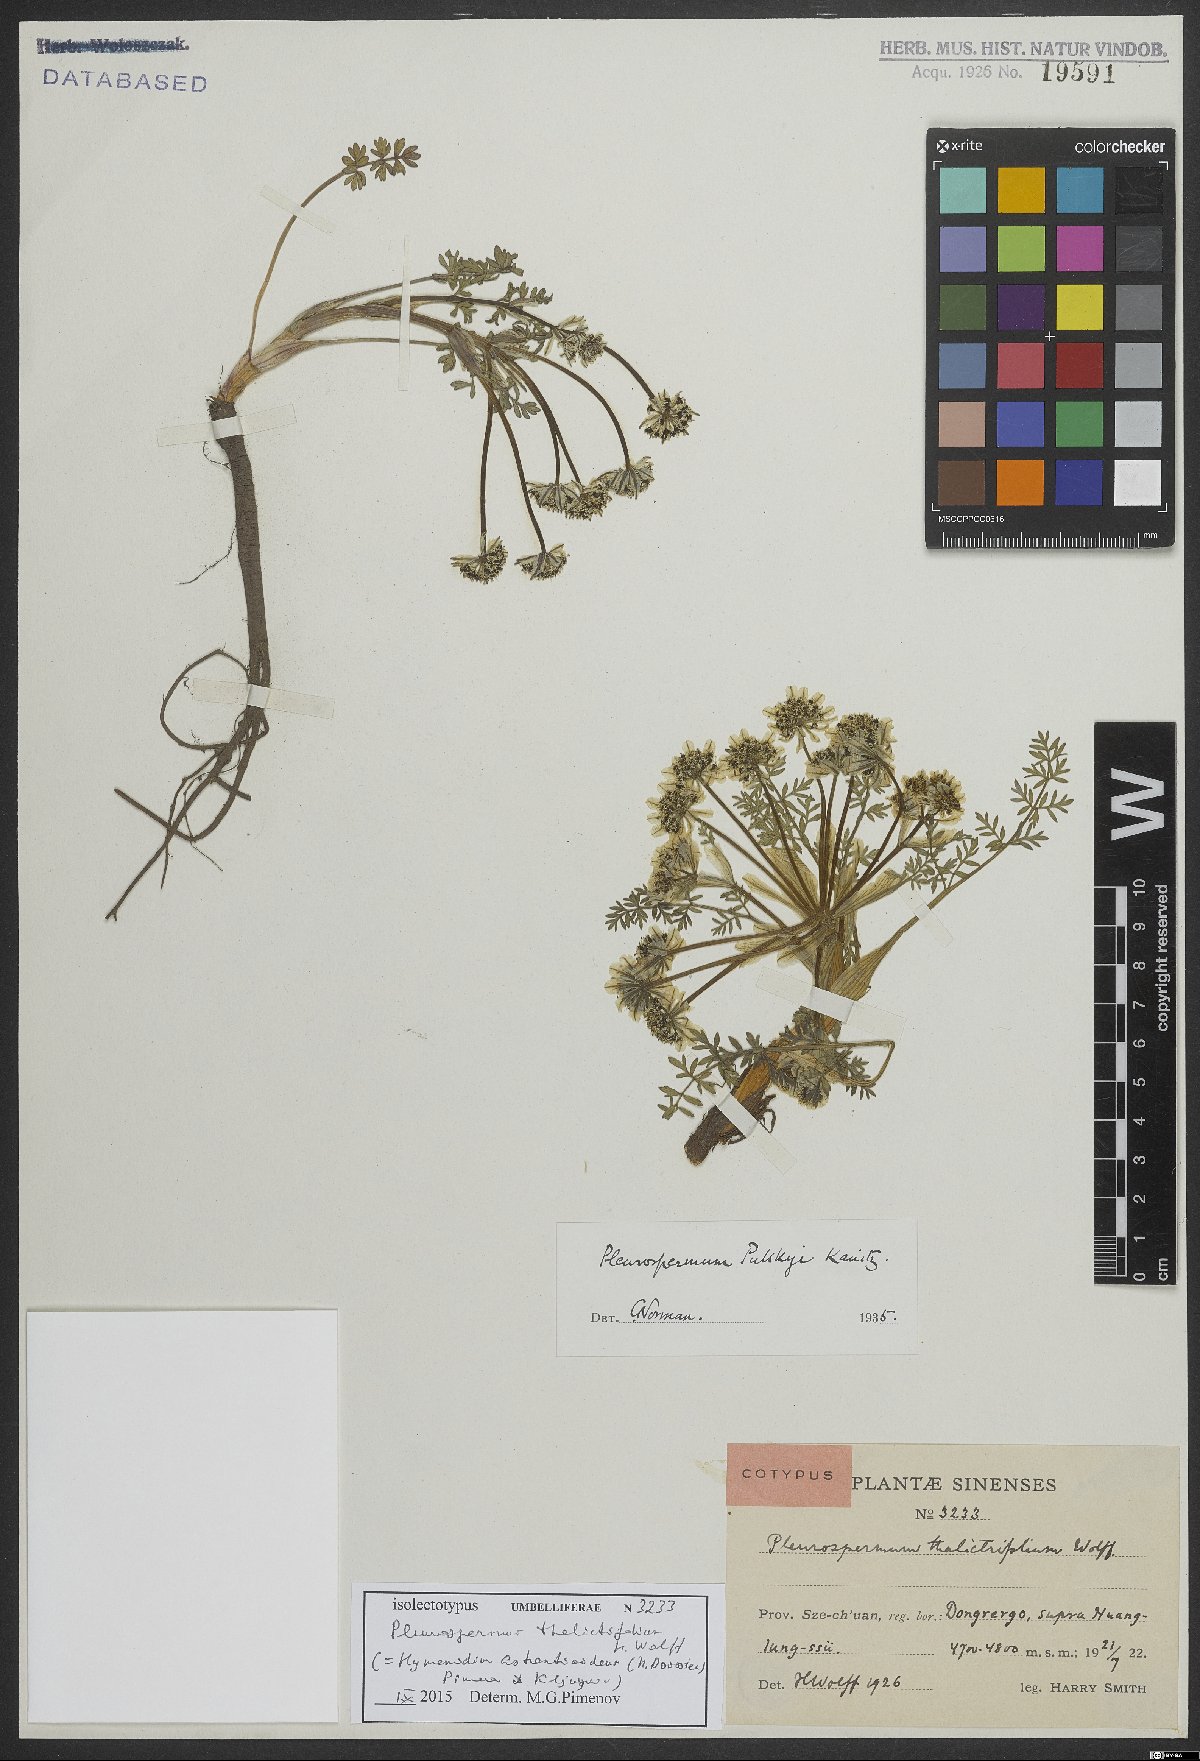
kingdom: Plantae
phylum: Tracheophyta
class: Magnoliopsida
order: Apiales
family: Apiaceae
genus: Hymenidium
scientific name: Hymenidium astrantioideum
